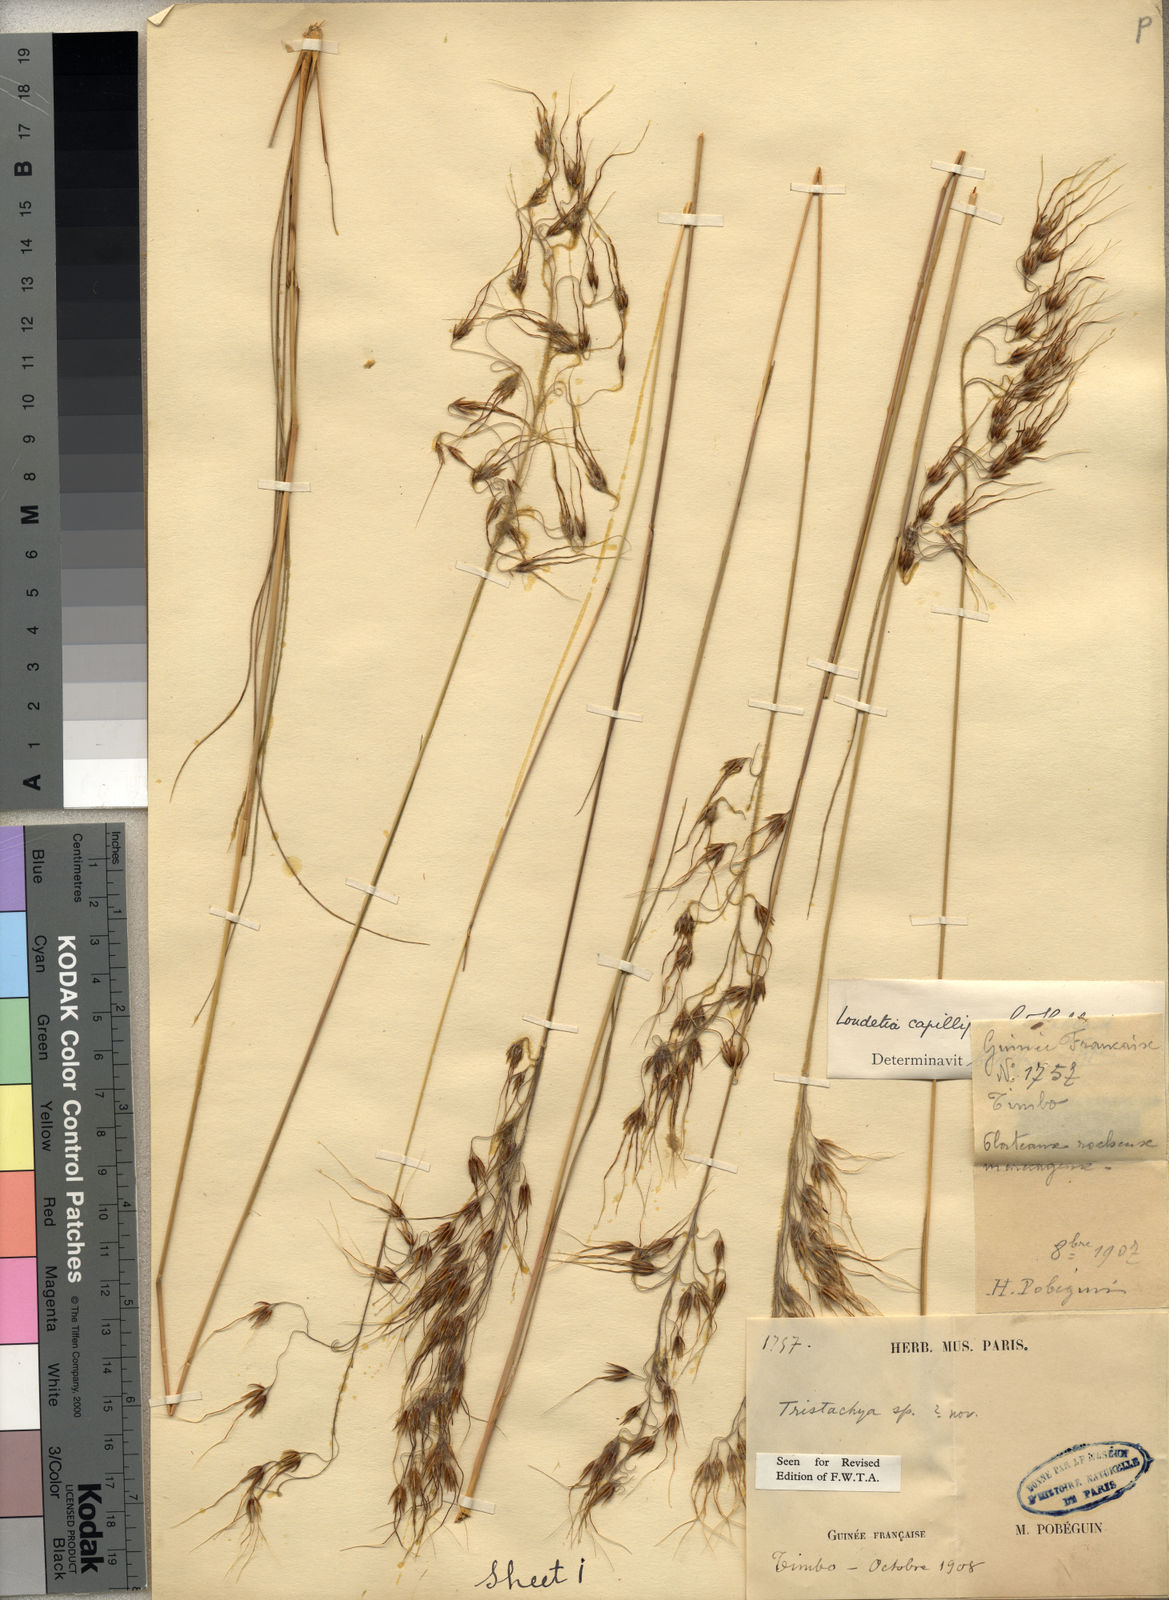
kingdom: Plantae
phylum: Tracheophyta
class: Liliopsida
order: Poales
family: Poaceae
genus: Loudetiopsis
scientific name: Loudetiopsis capillipes
